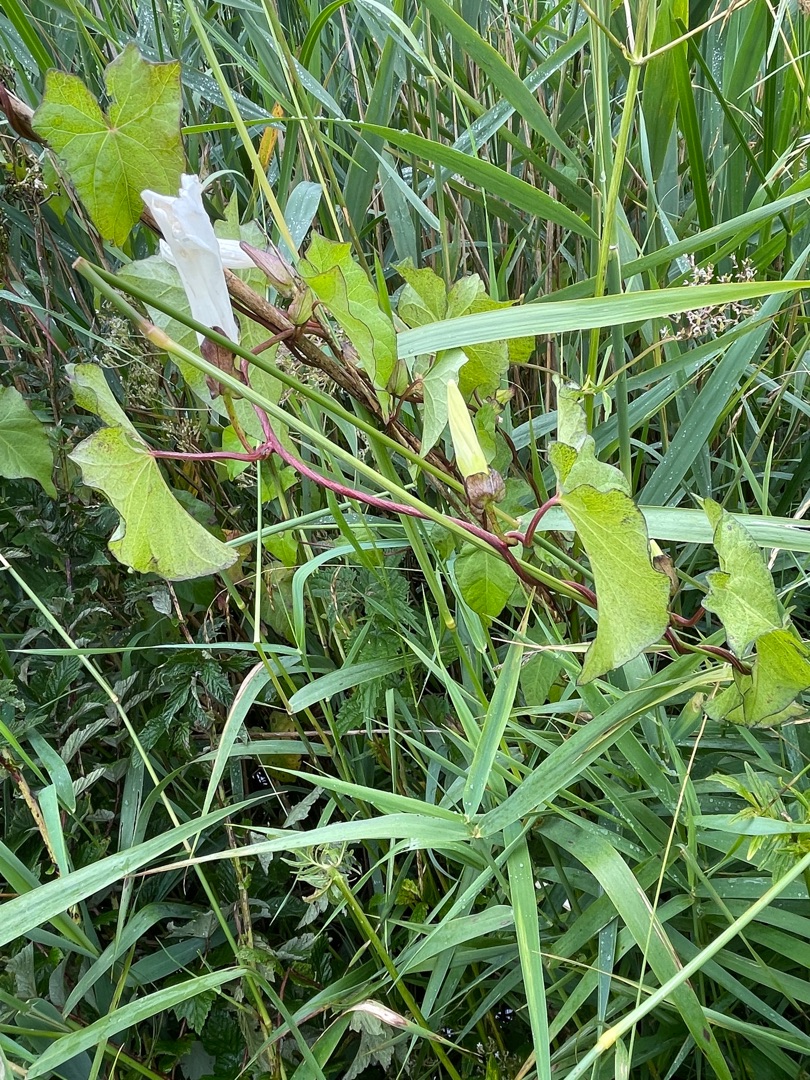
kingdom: Plantae
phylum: Tracheophyta
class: Magnoliopsida
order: Solanales
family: Convolvulaceae
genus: Calystegia
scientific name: Calystegia sepium
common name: Gærde-snerle
